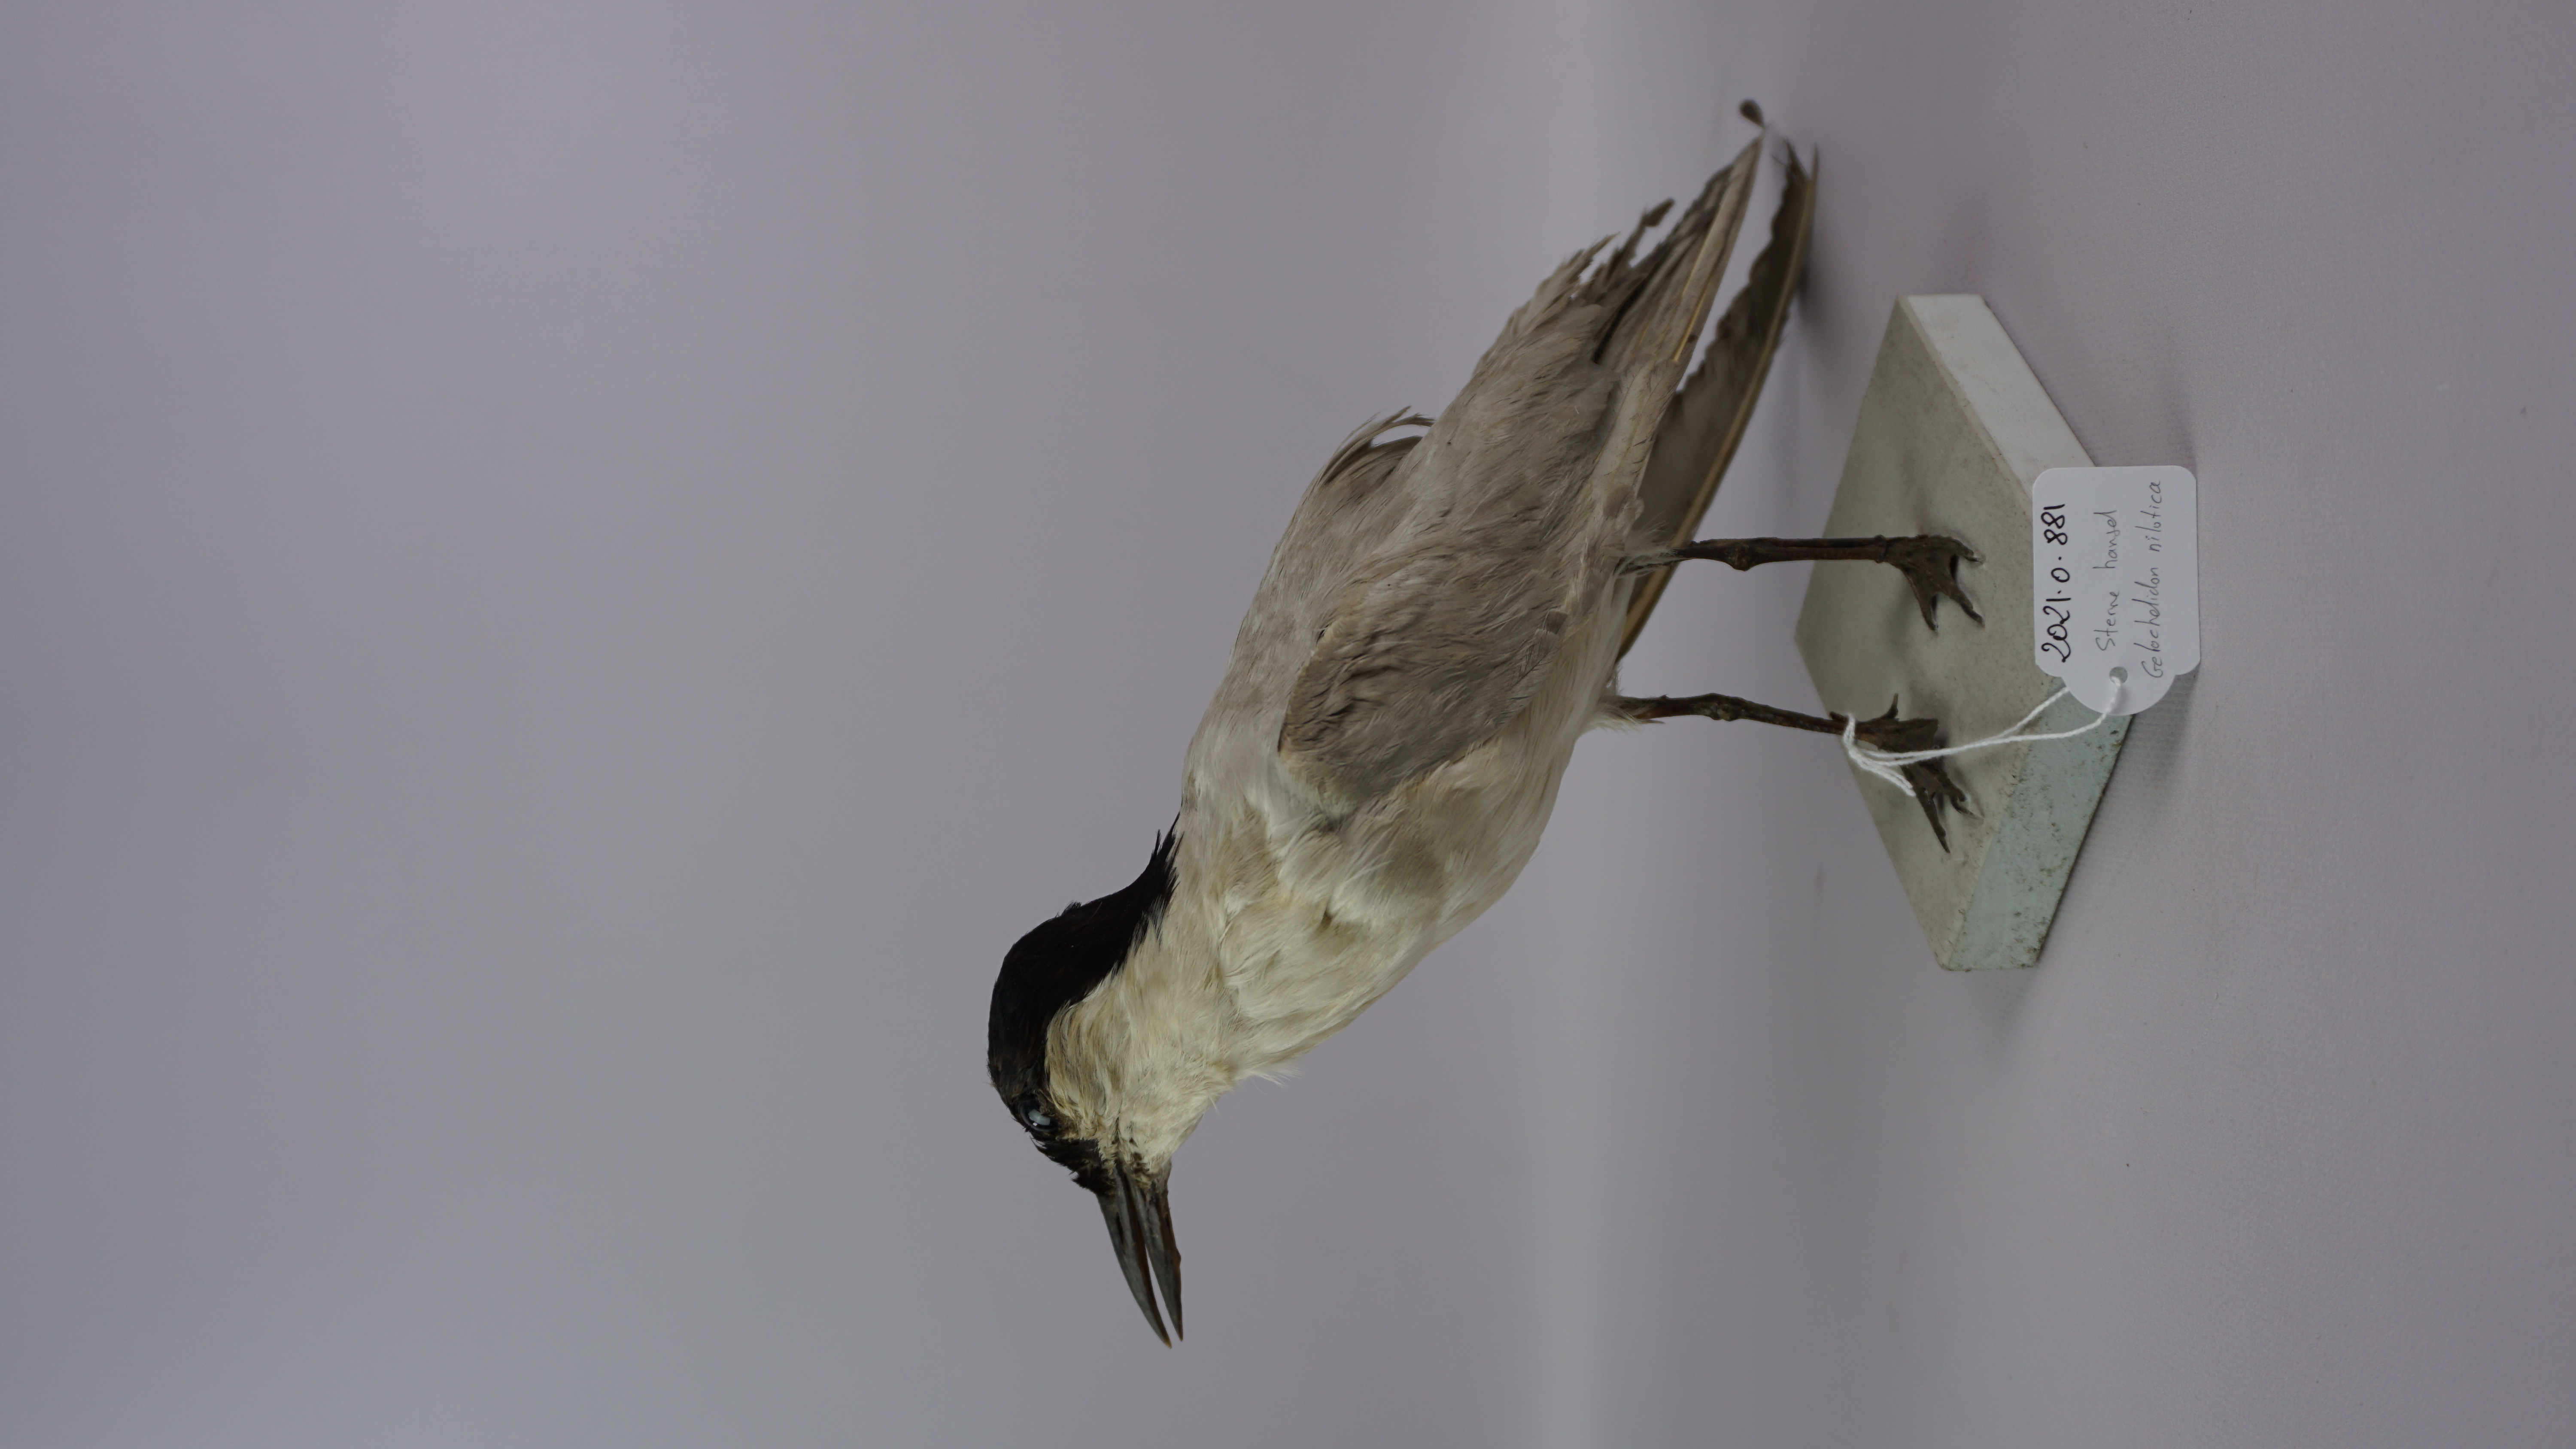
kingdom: Animalia
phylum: Chordata
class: Aves
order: Charadriiformes
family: Laridae
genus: Gelochelidon
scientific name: Gelochelidon nilotica
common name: Gull-billed tern
